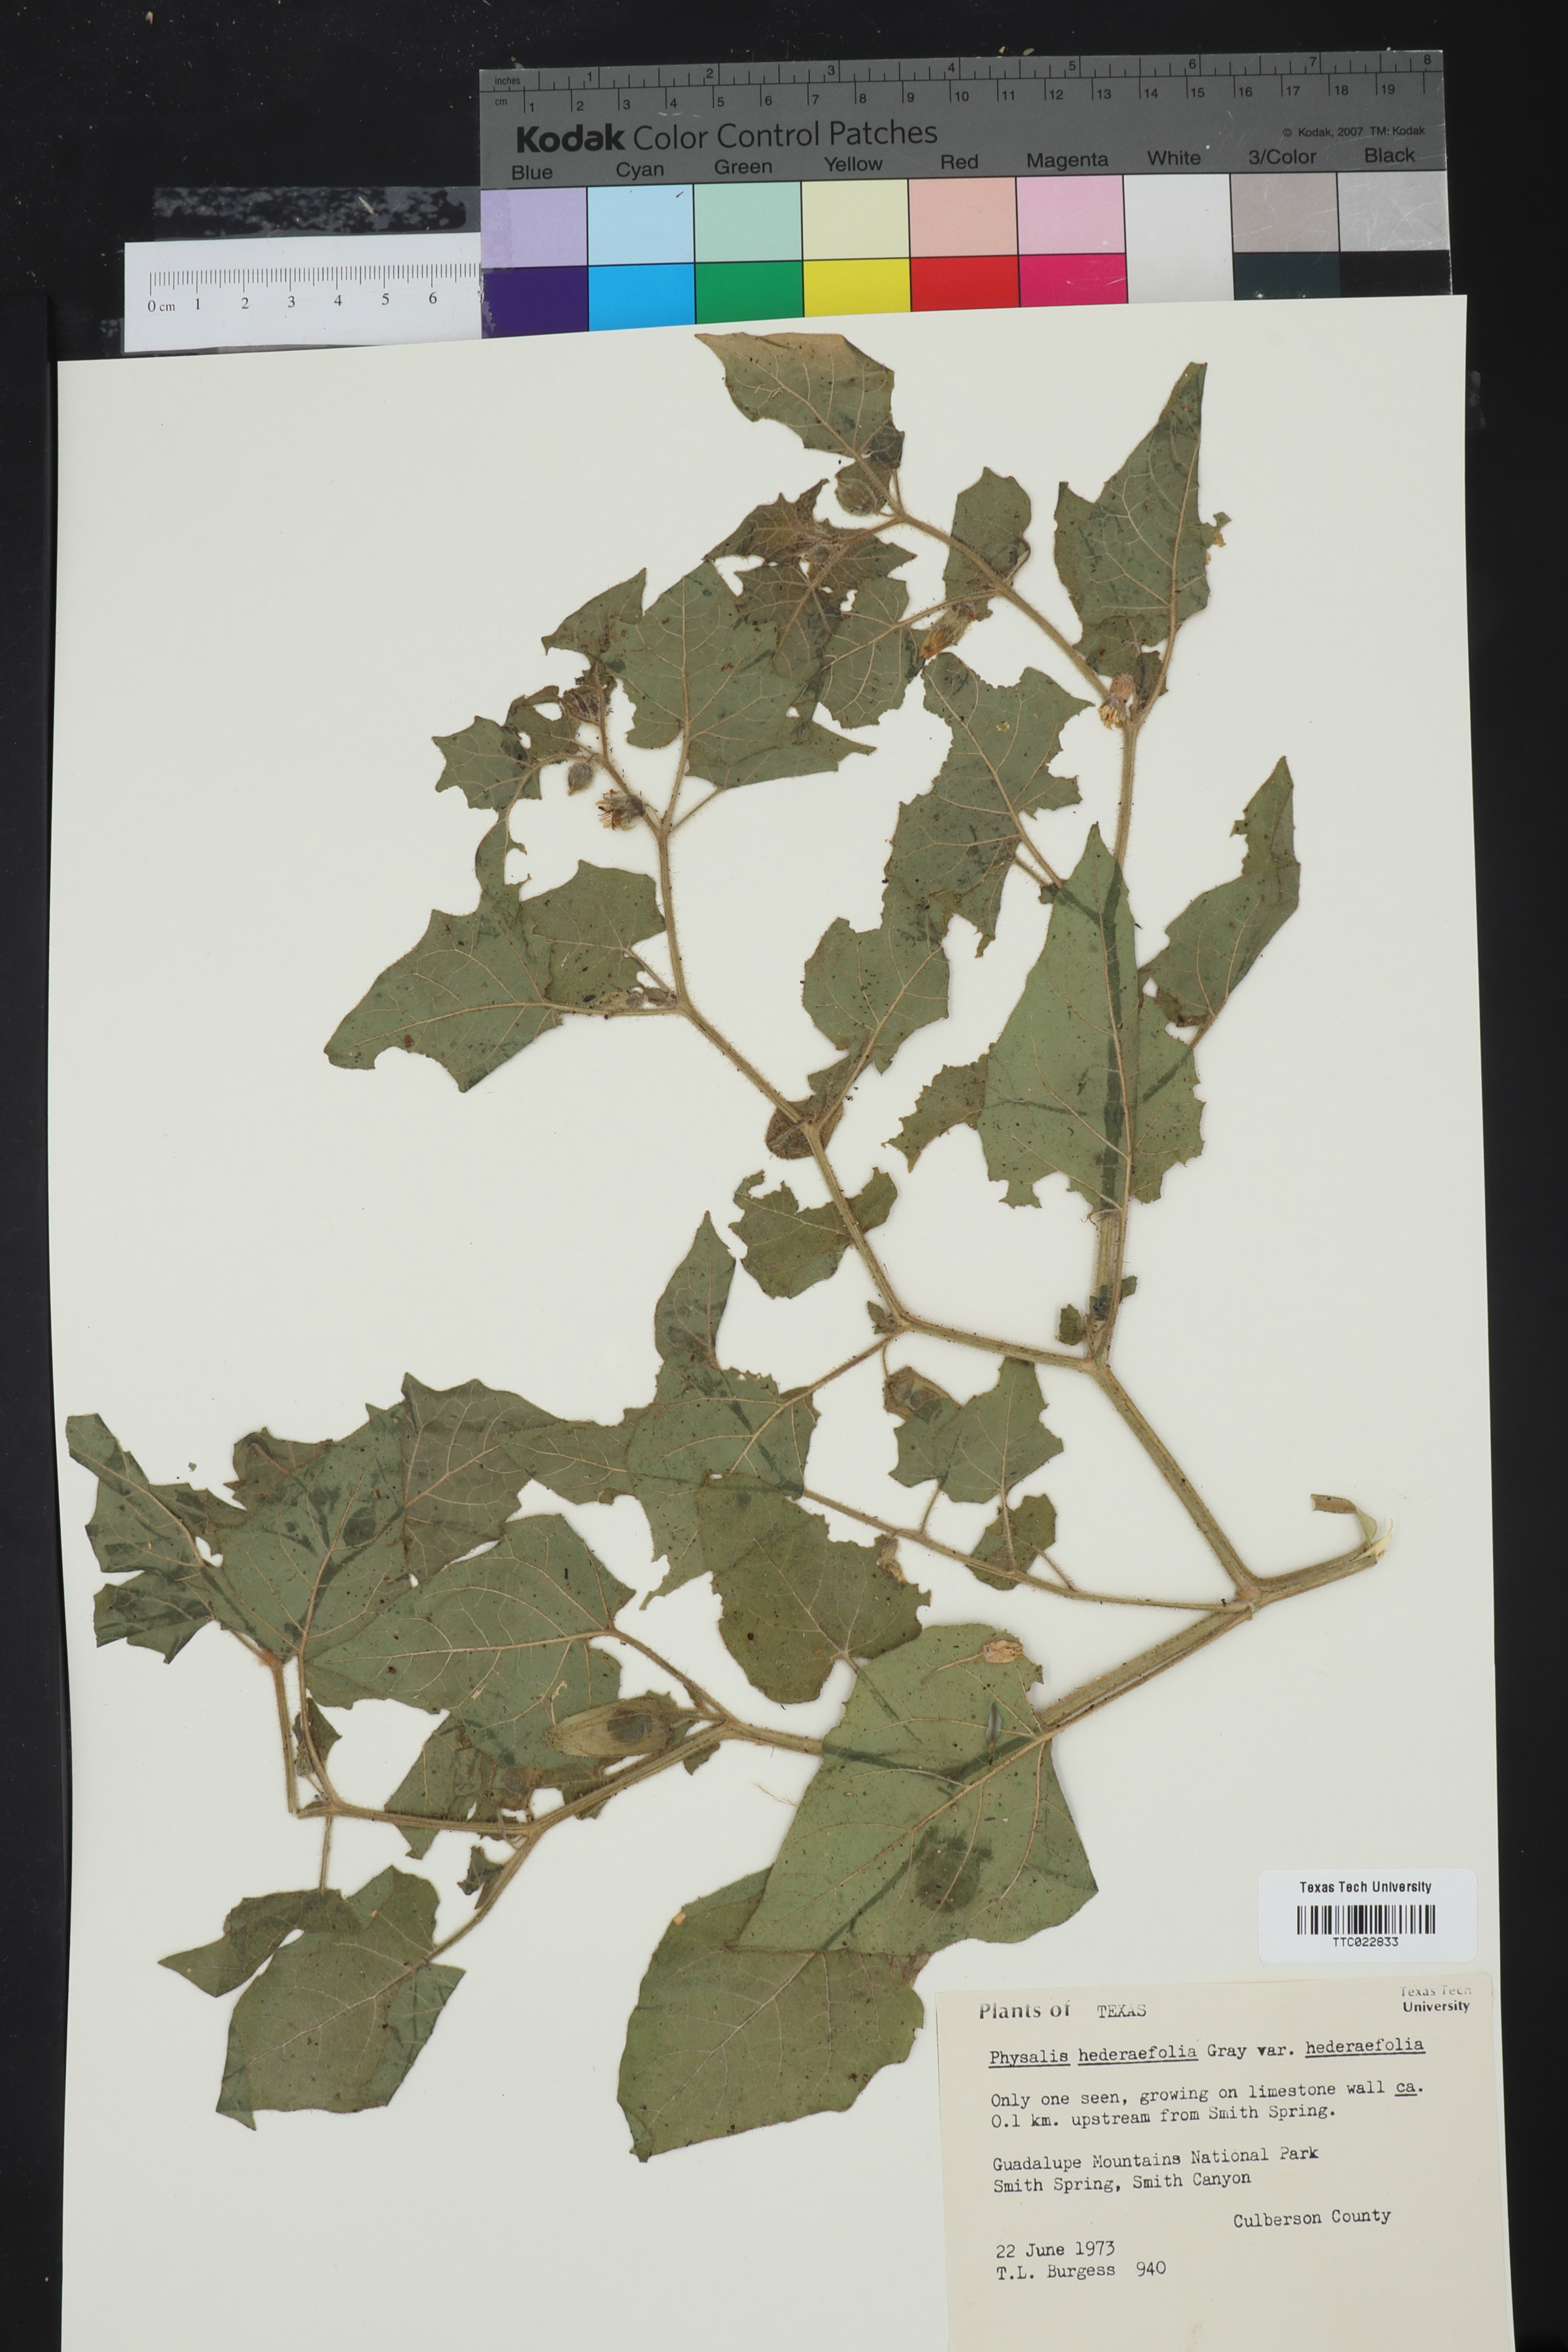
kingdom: Plantae
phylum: Tracheophyta
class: Magnoliopsida
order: Solanales
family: Solanaceae
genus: Physalis
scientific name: Physalis hederifolia
